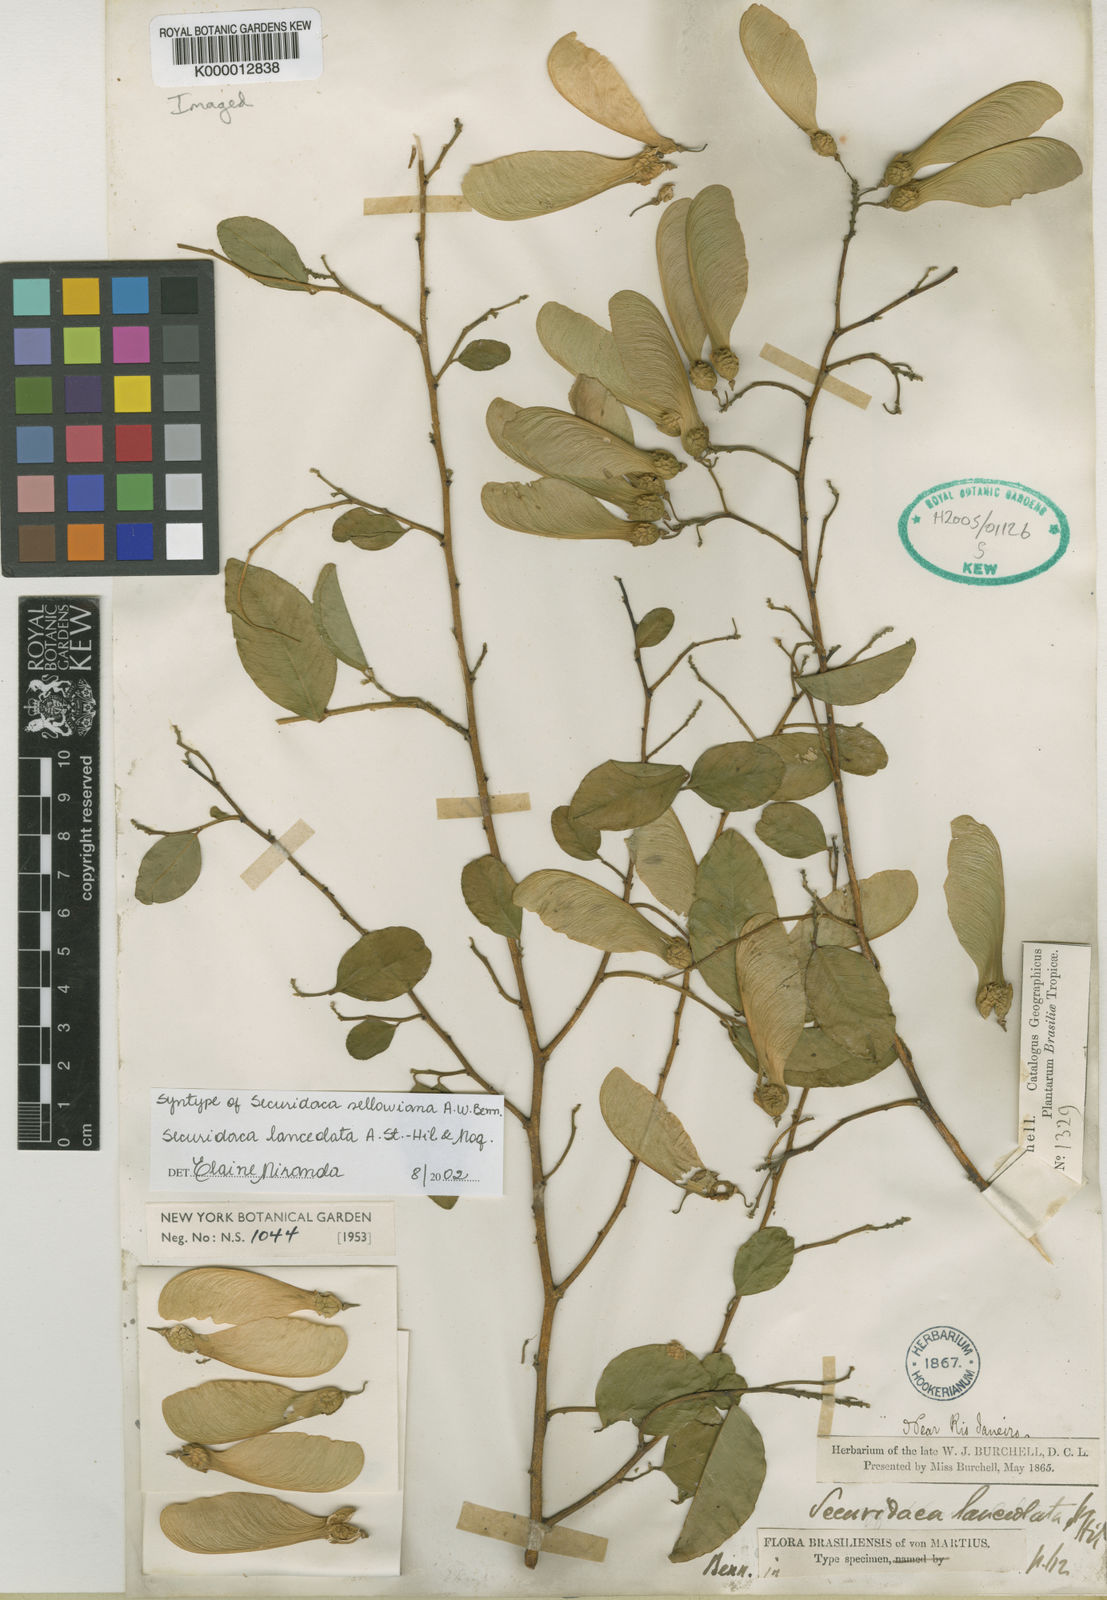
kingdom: Plantae
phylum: Tracheophyta
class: Magnoliopsida
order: Fabales
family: Polygalaceae
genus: Securidaca
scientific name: Securidaca lanceolata
